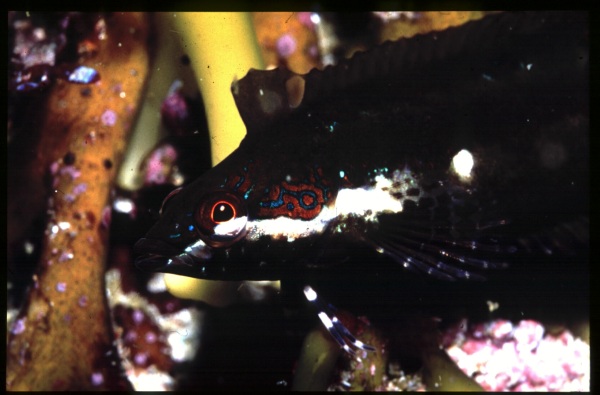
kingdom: Animalia
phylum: Chordata
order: Perciformes
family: Clinidae
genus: Pavoclinus
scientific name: Pavoclinus pavo
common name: Peacock klipfish
